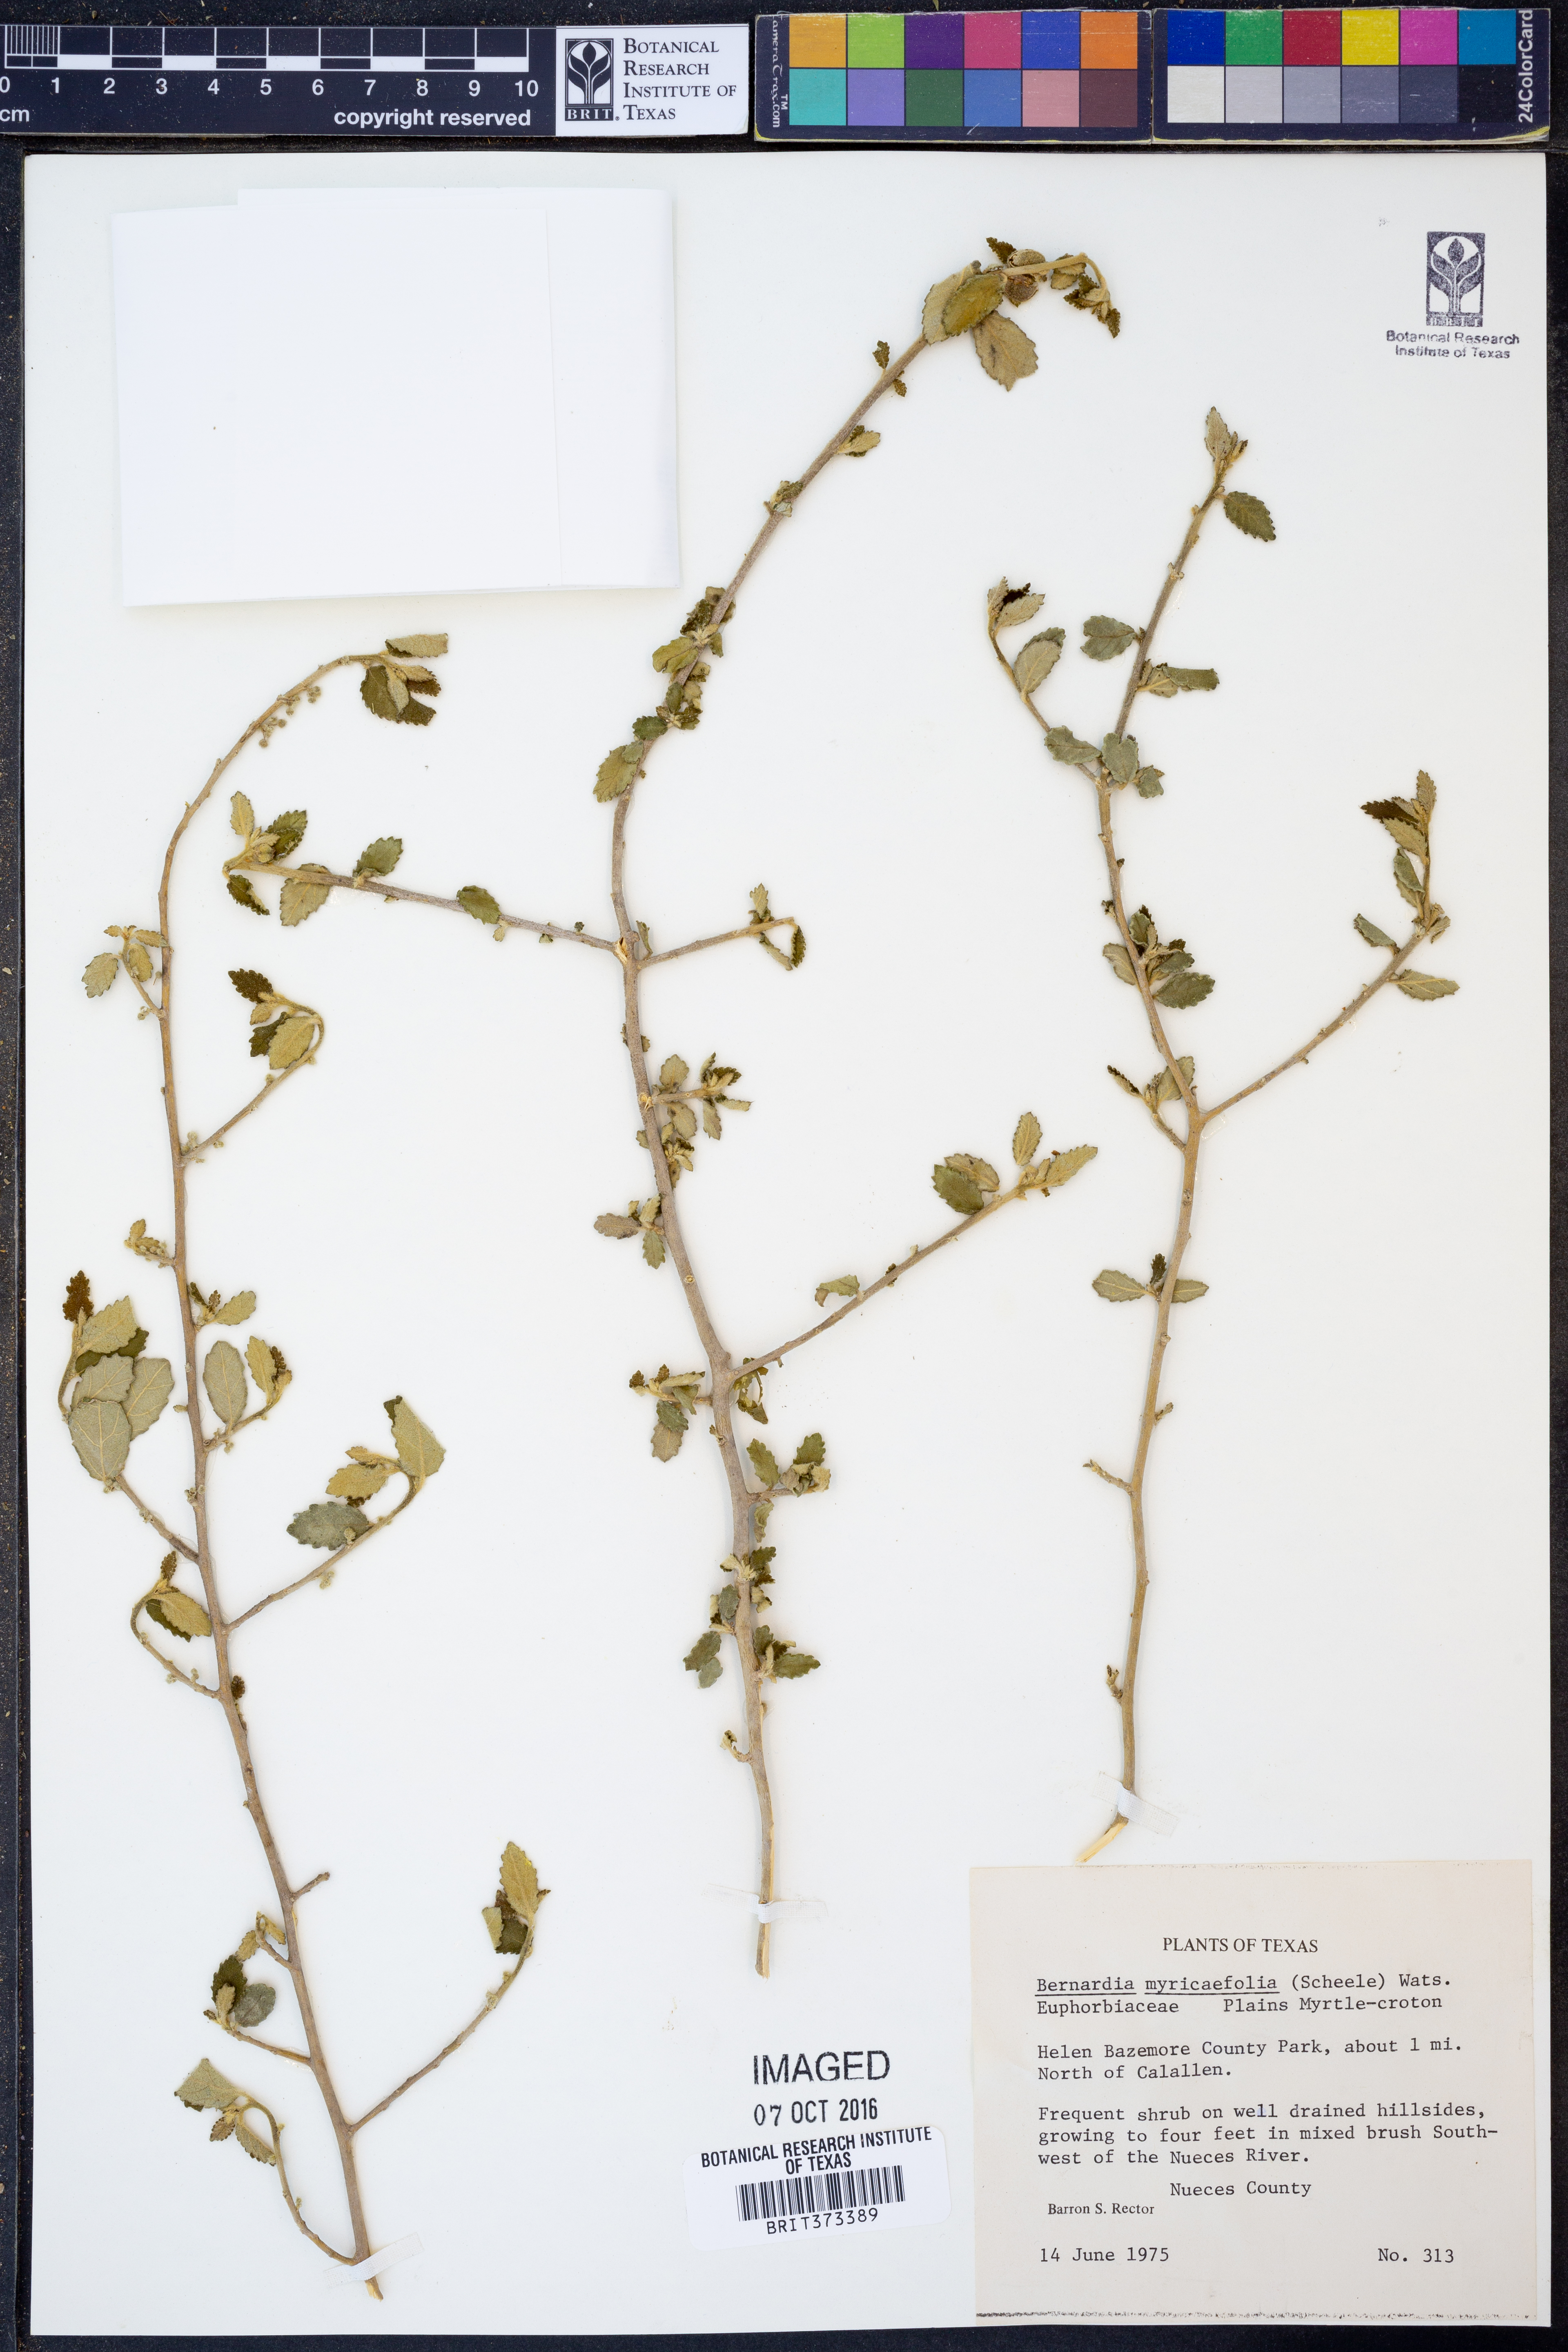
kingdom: Plantae
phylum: Tracheophyta
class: Magnoliopsida
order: Malpighiales
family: Euphorbiaceae
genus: Bernardia
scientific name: Bernardia myricifolia
